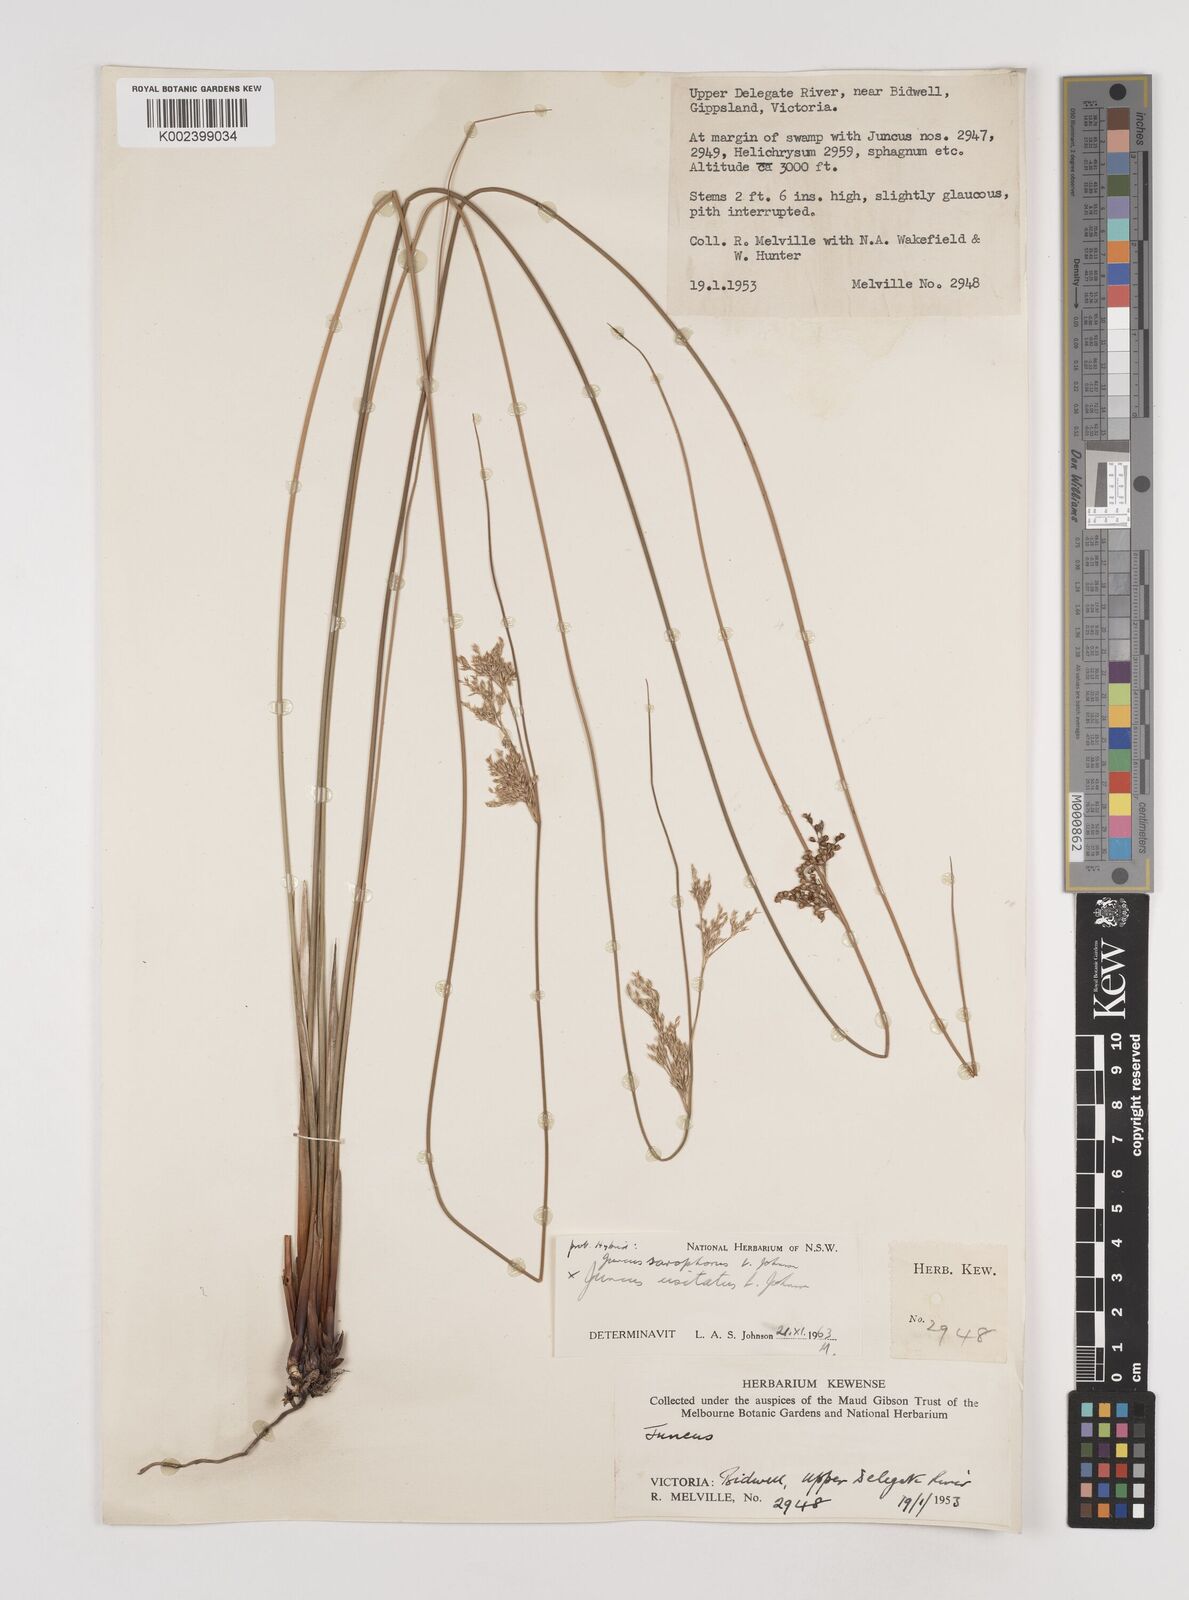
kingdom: Plantae
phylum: Tracheophyta
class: Liliopsida
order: Poales
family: Juncaceae
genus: Juncus
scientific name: Juncus sarophorus
